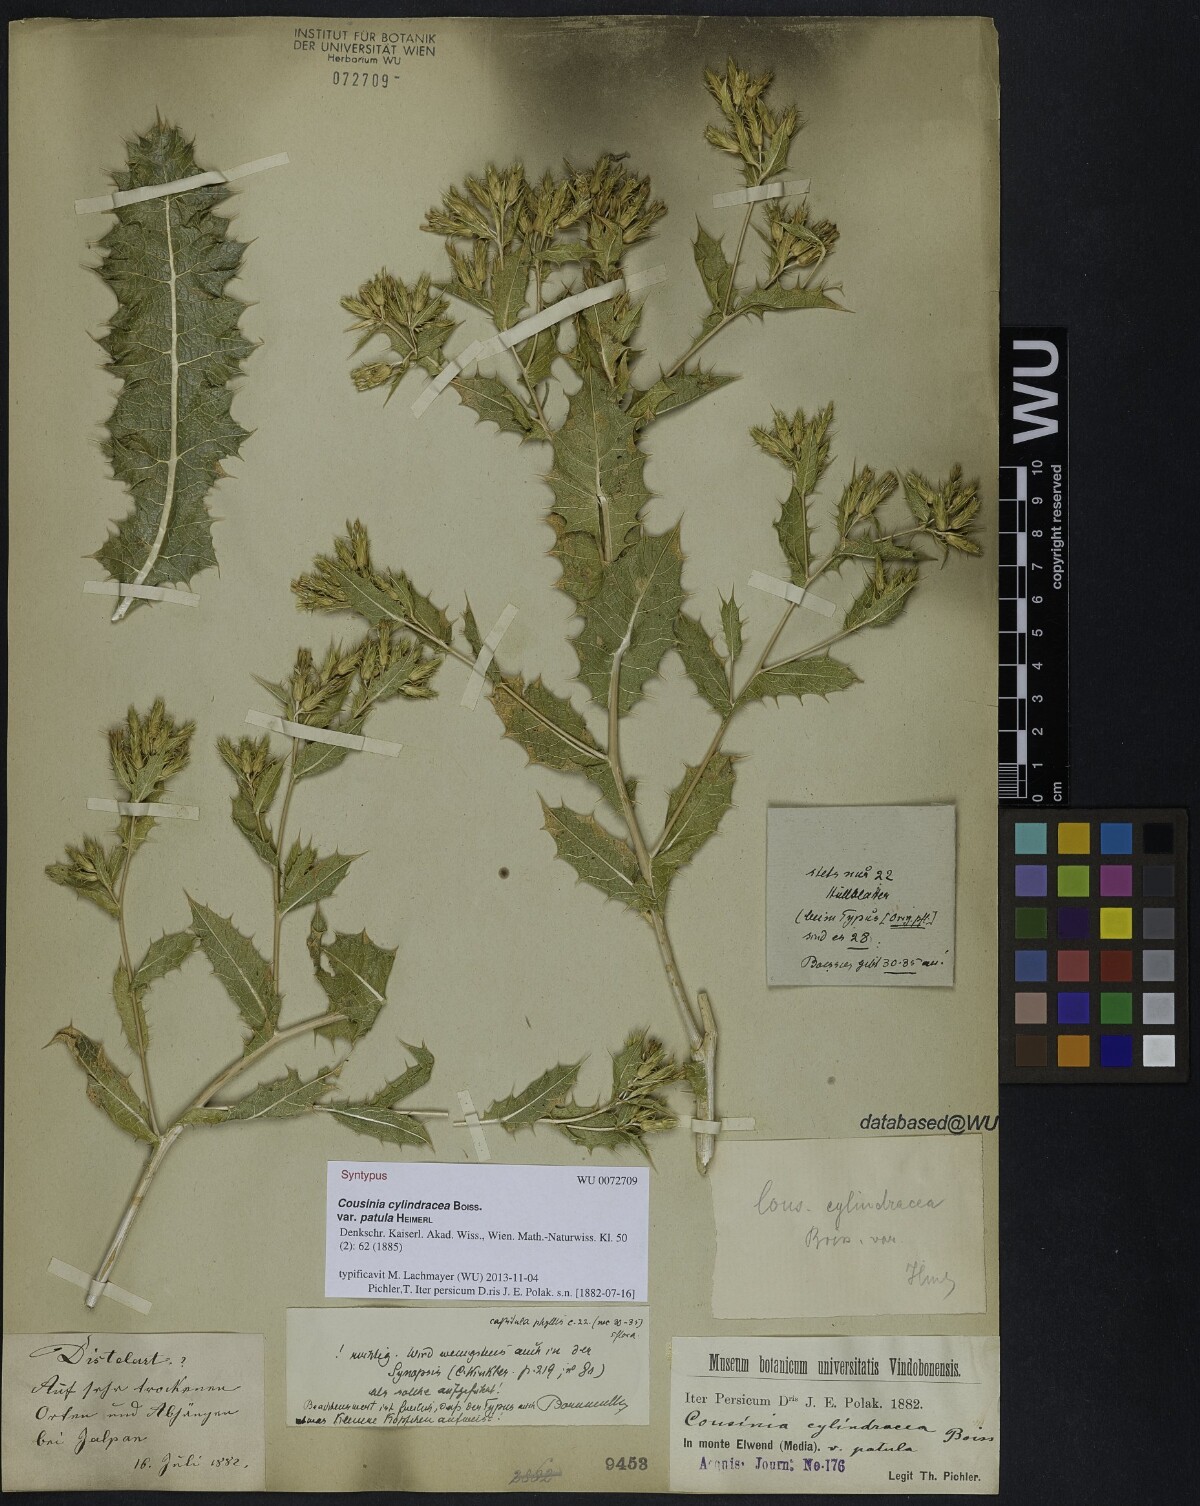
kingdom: Plantae
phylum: Tracheophyta
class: Magnoliopsida
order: Asterales
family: Asteraceae
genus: Cousinia
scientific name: Cousinia cylindracea
